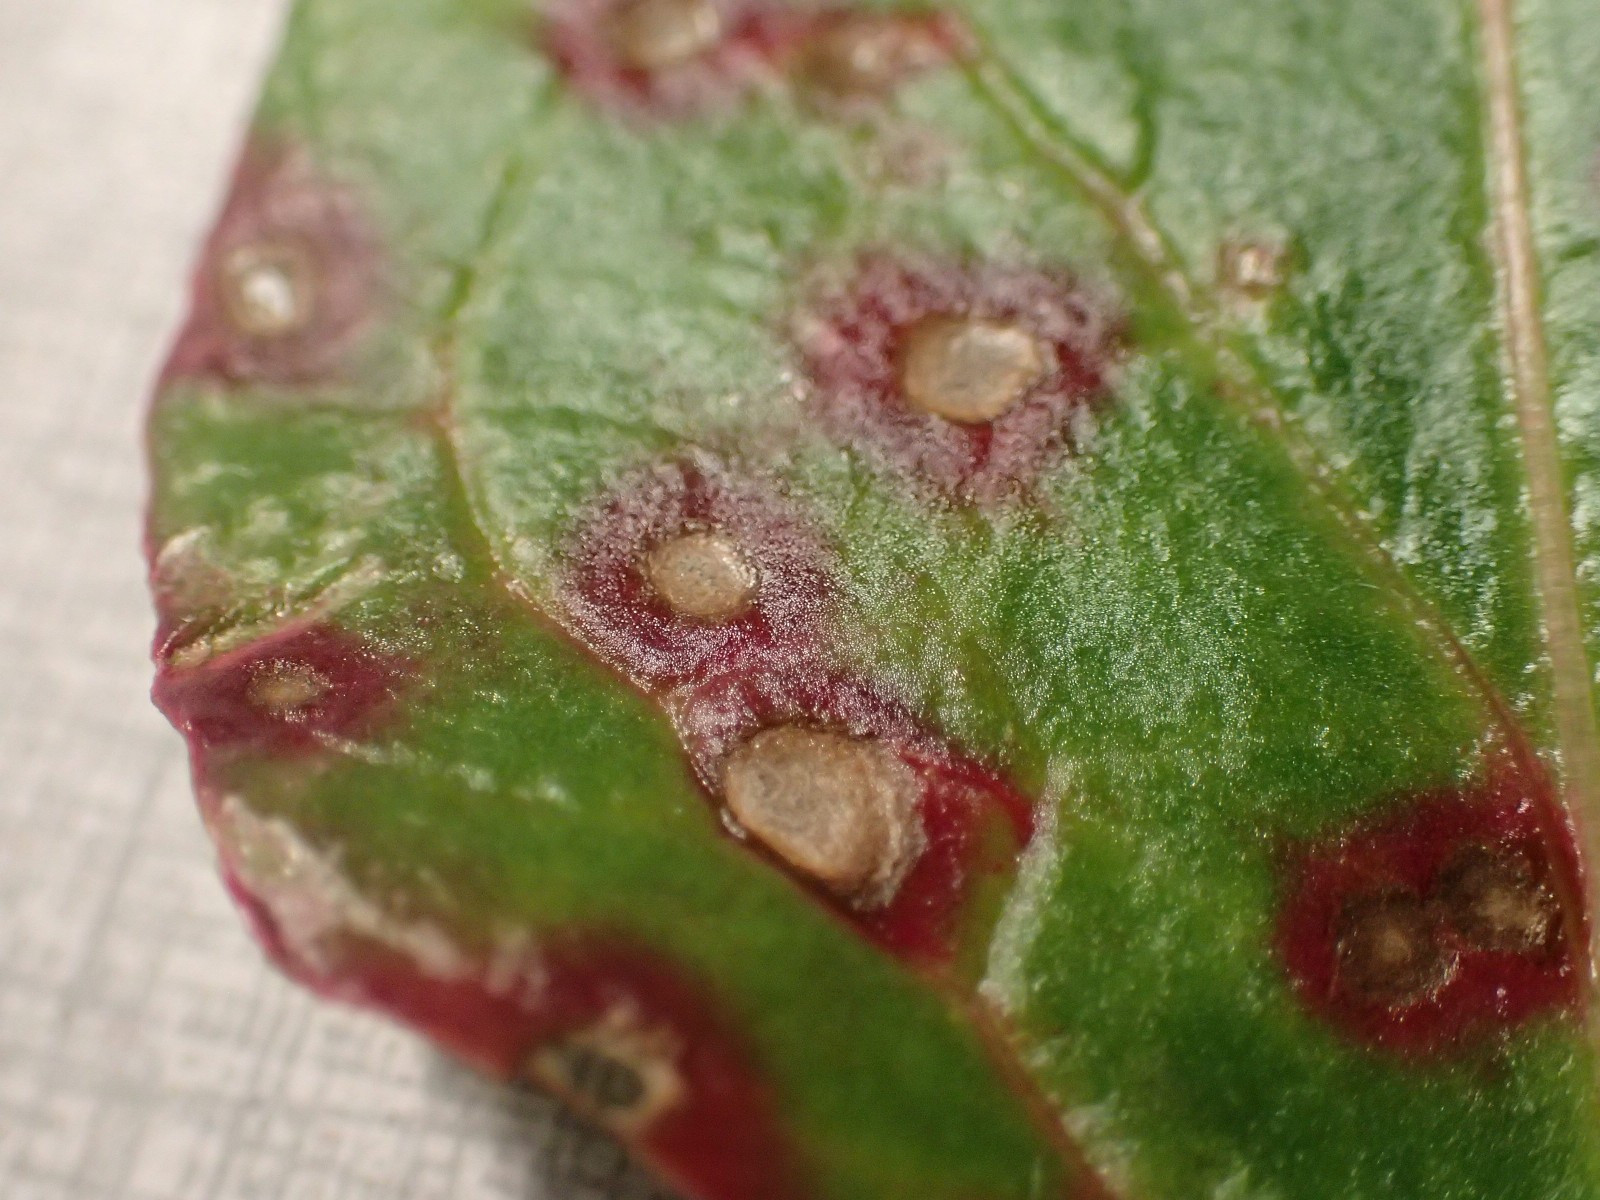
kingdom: Fungi
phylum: Ascomycota
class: Dothideomycetes
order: Mycosphaerellales
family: Mycosphaerellaceae
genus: Cercospora
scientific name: Cercospora beticola
